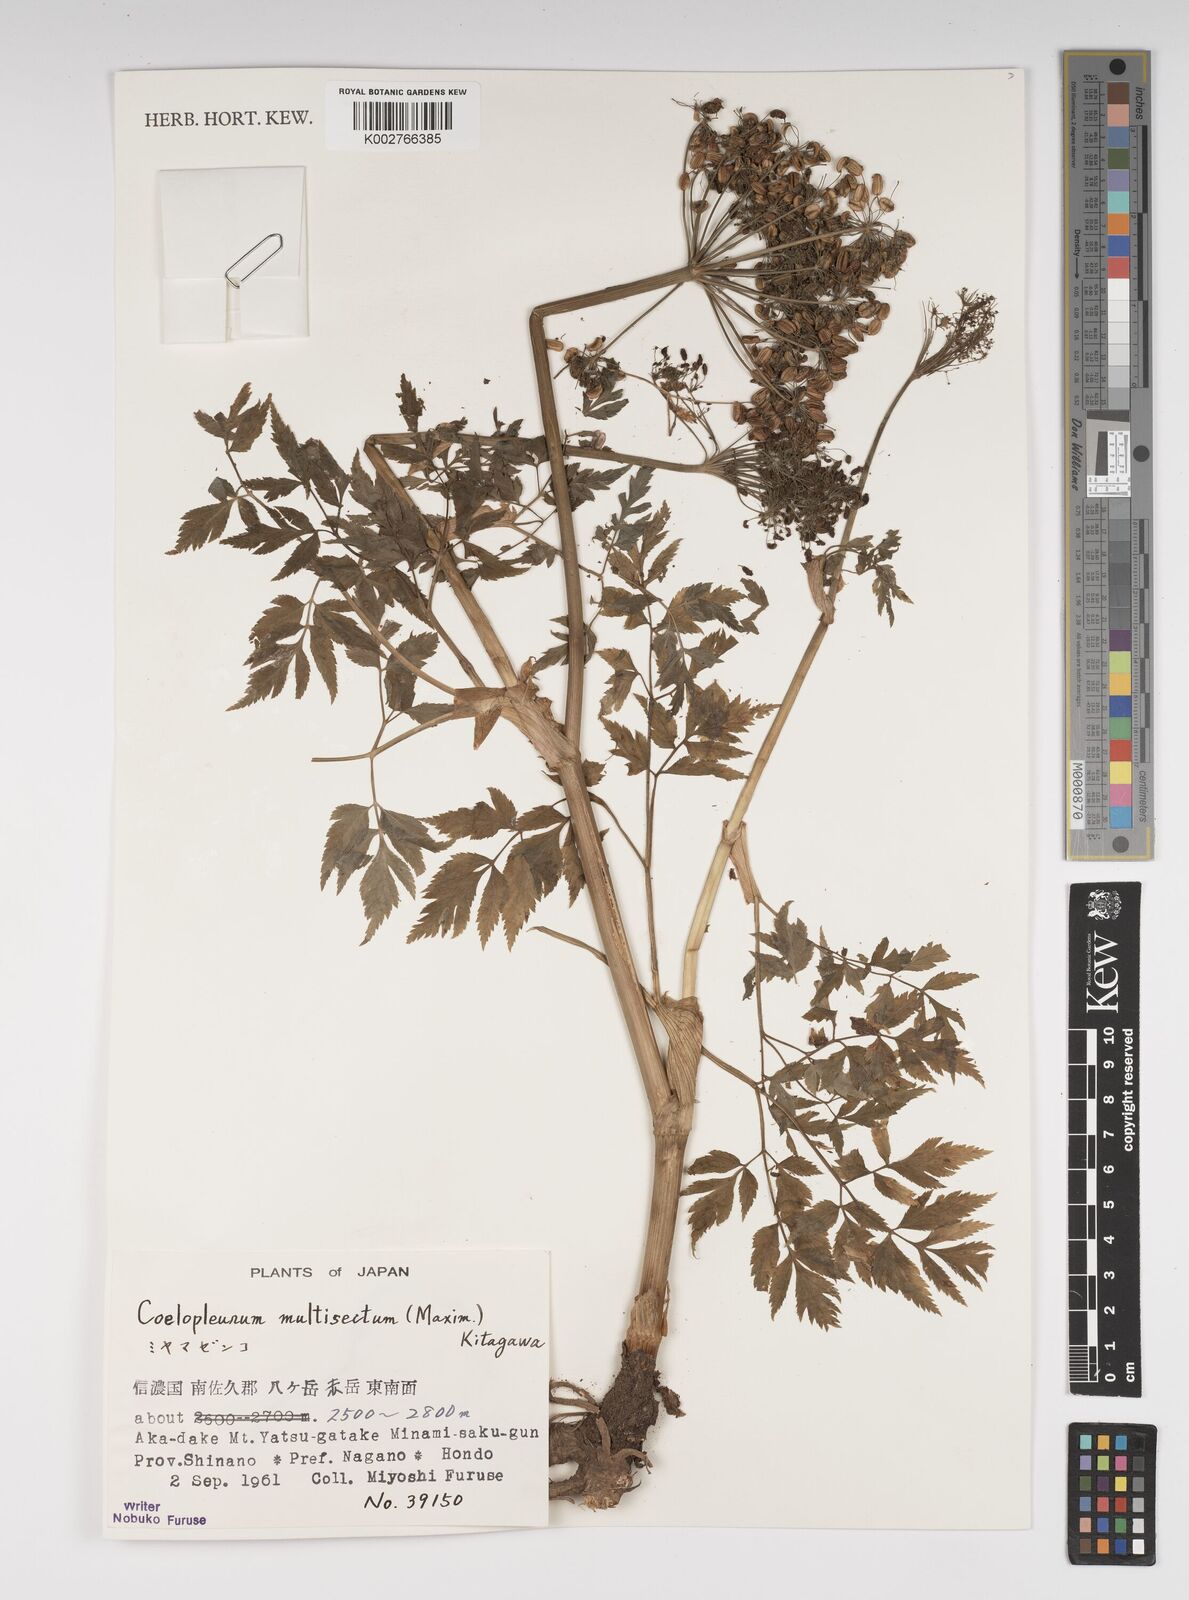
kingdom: Plantae
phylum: Tracheophyta
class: Magnoliopsida
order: Apiales
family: Apiaceae
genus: Angelica
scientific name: Angelica
